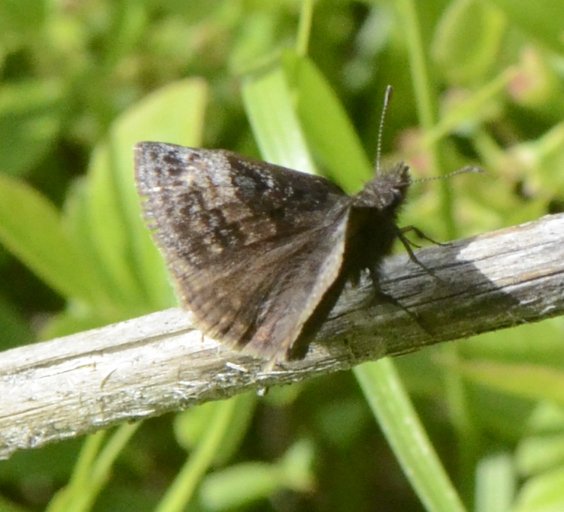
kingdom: Animalia
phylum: Arthropoda
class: Insecta
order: Lepidoptera
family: Hesperiidae
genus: Erynnis
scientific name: Erynnis icelus
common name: Dreamy Duskywing
